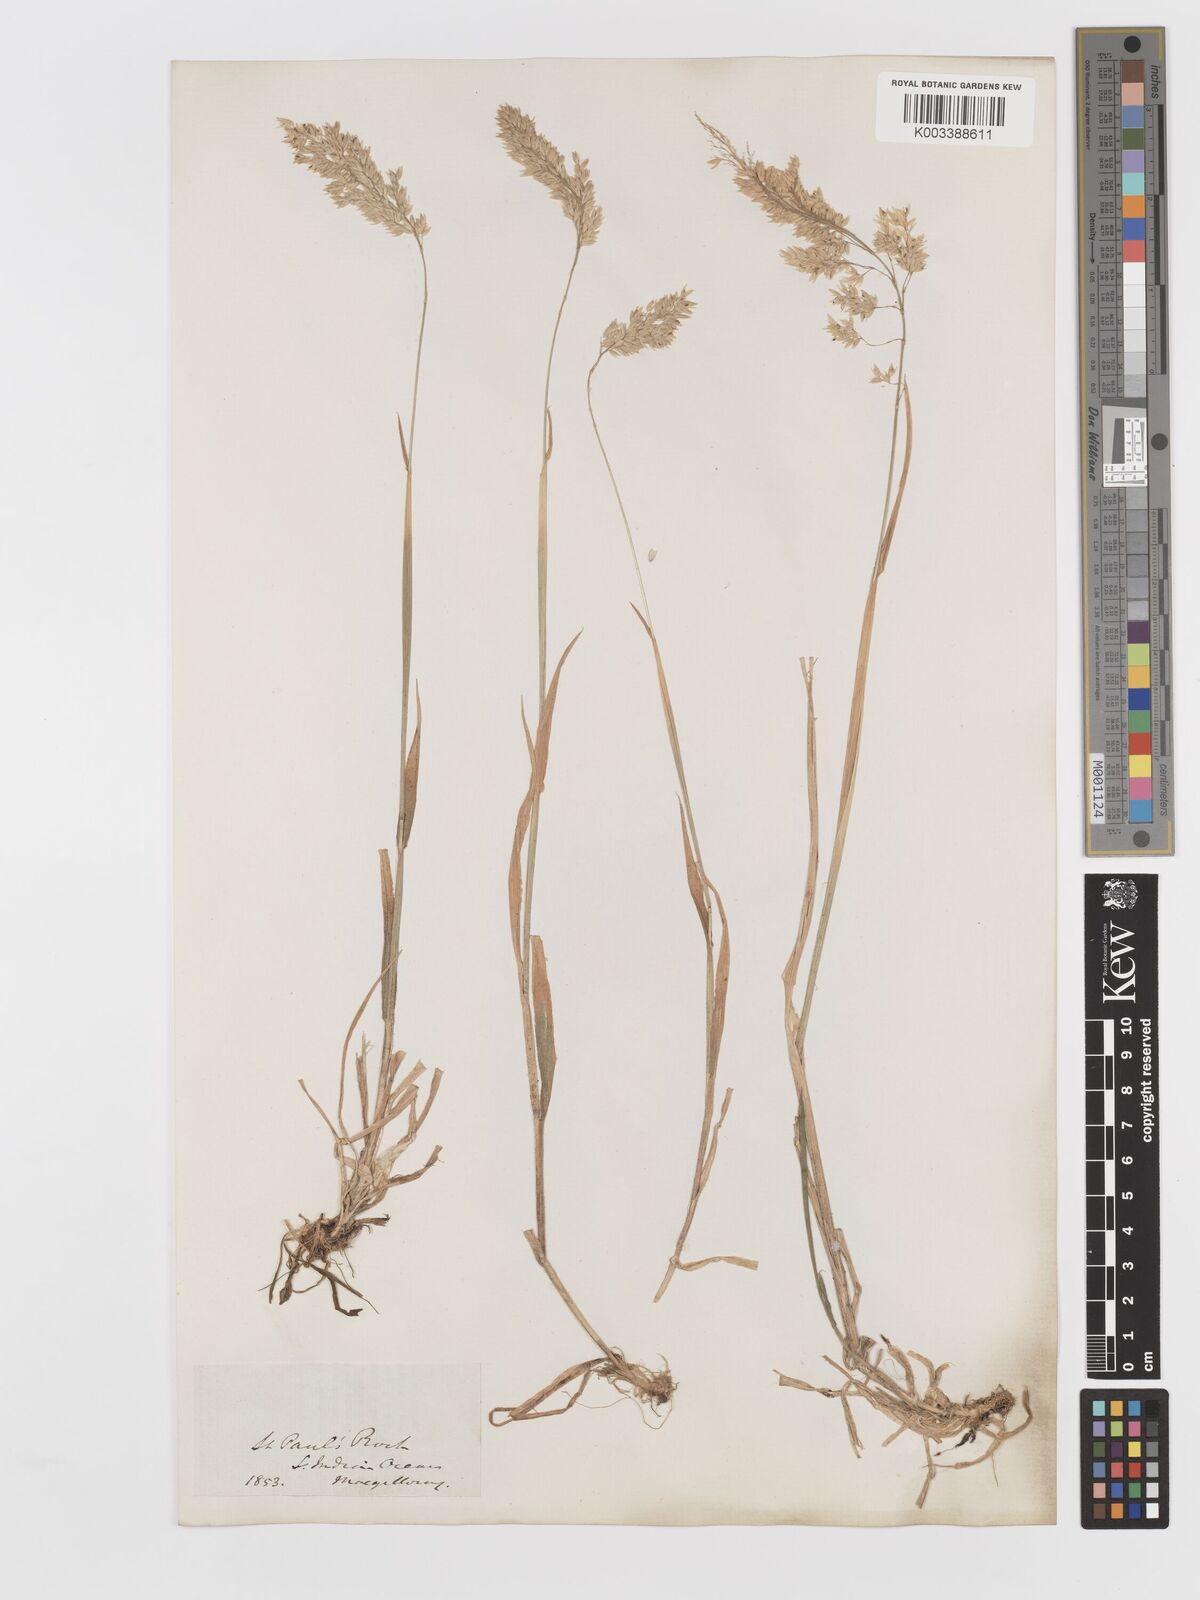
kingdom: Plantae
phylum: Tracheophyta
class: Liliopsida
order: Poales
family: Poaceae
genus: Holcus
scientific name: Holcus lanatus
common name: Yorkshire-fog
